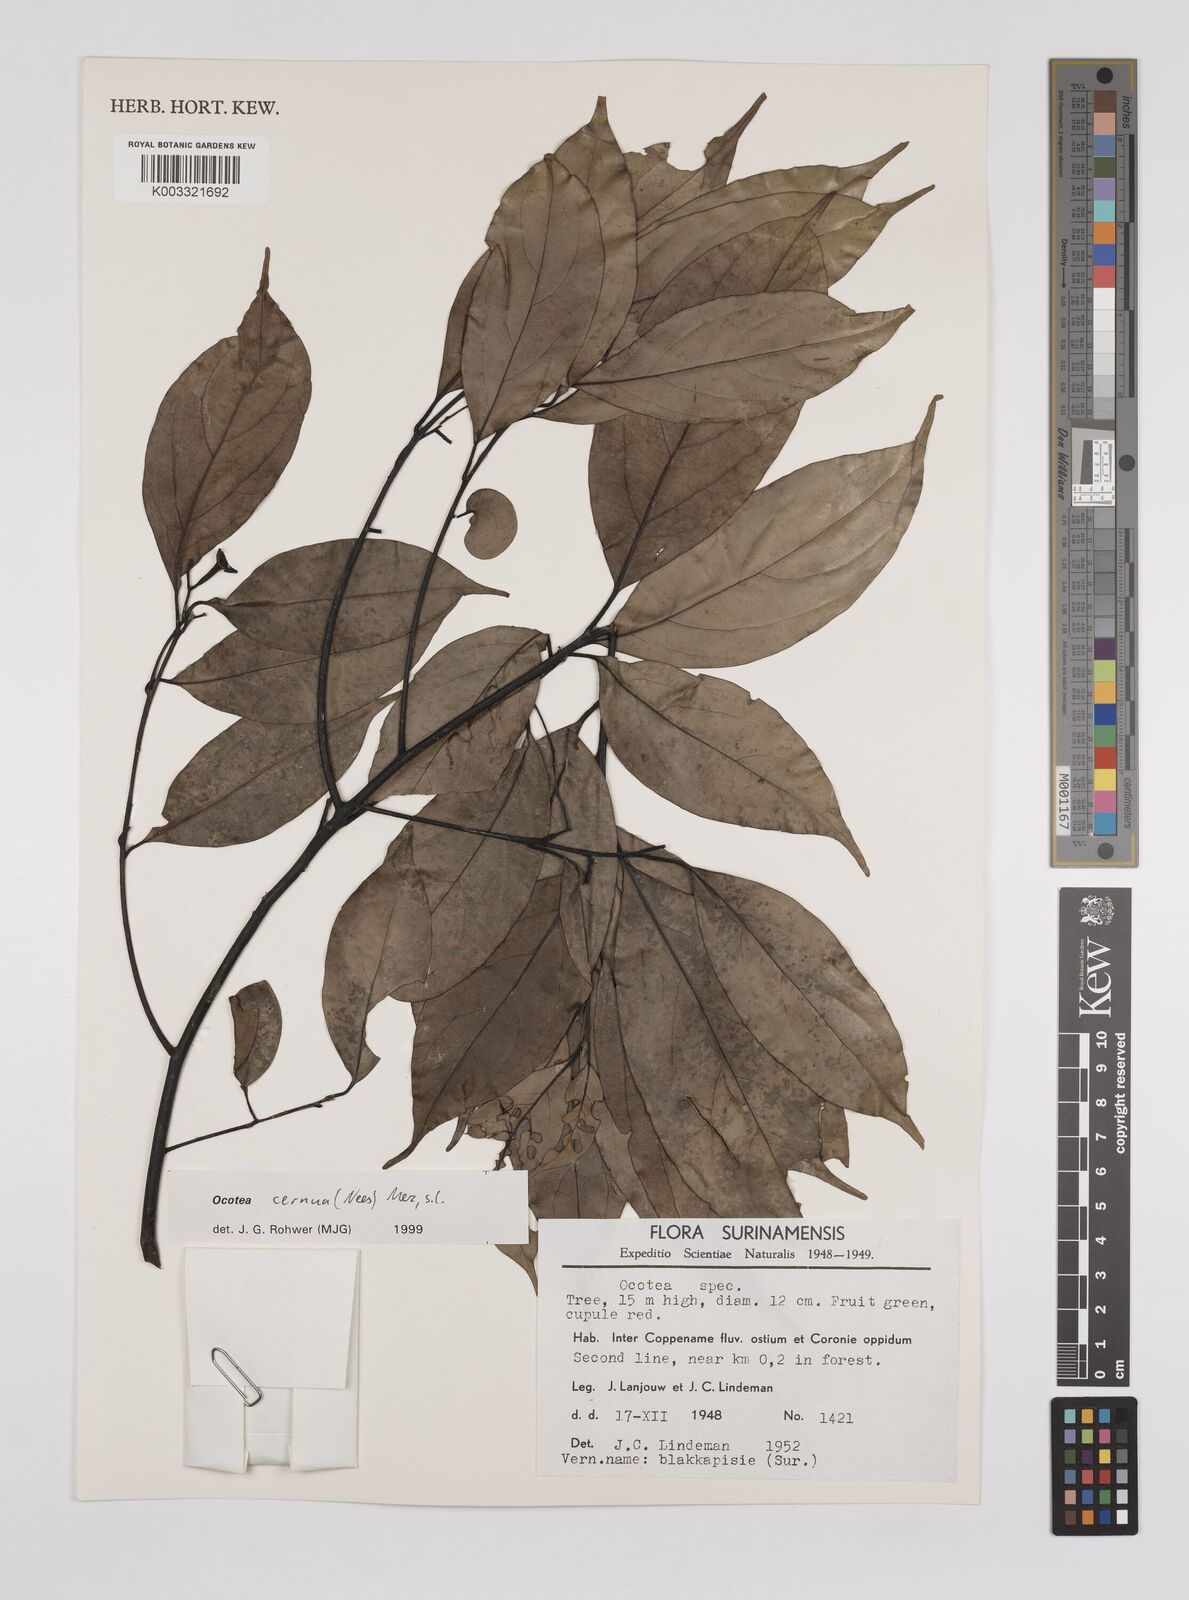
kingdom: Plantae
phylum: Tracheophyta
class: Magnoliopsida
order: Laurales
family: Lauraceae
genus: Ocotea
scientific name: Ocotea leptobotra
